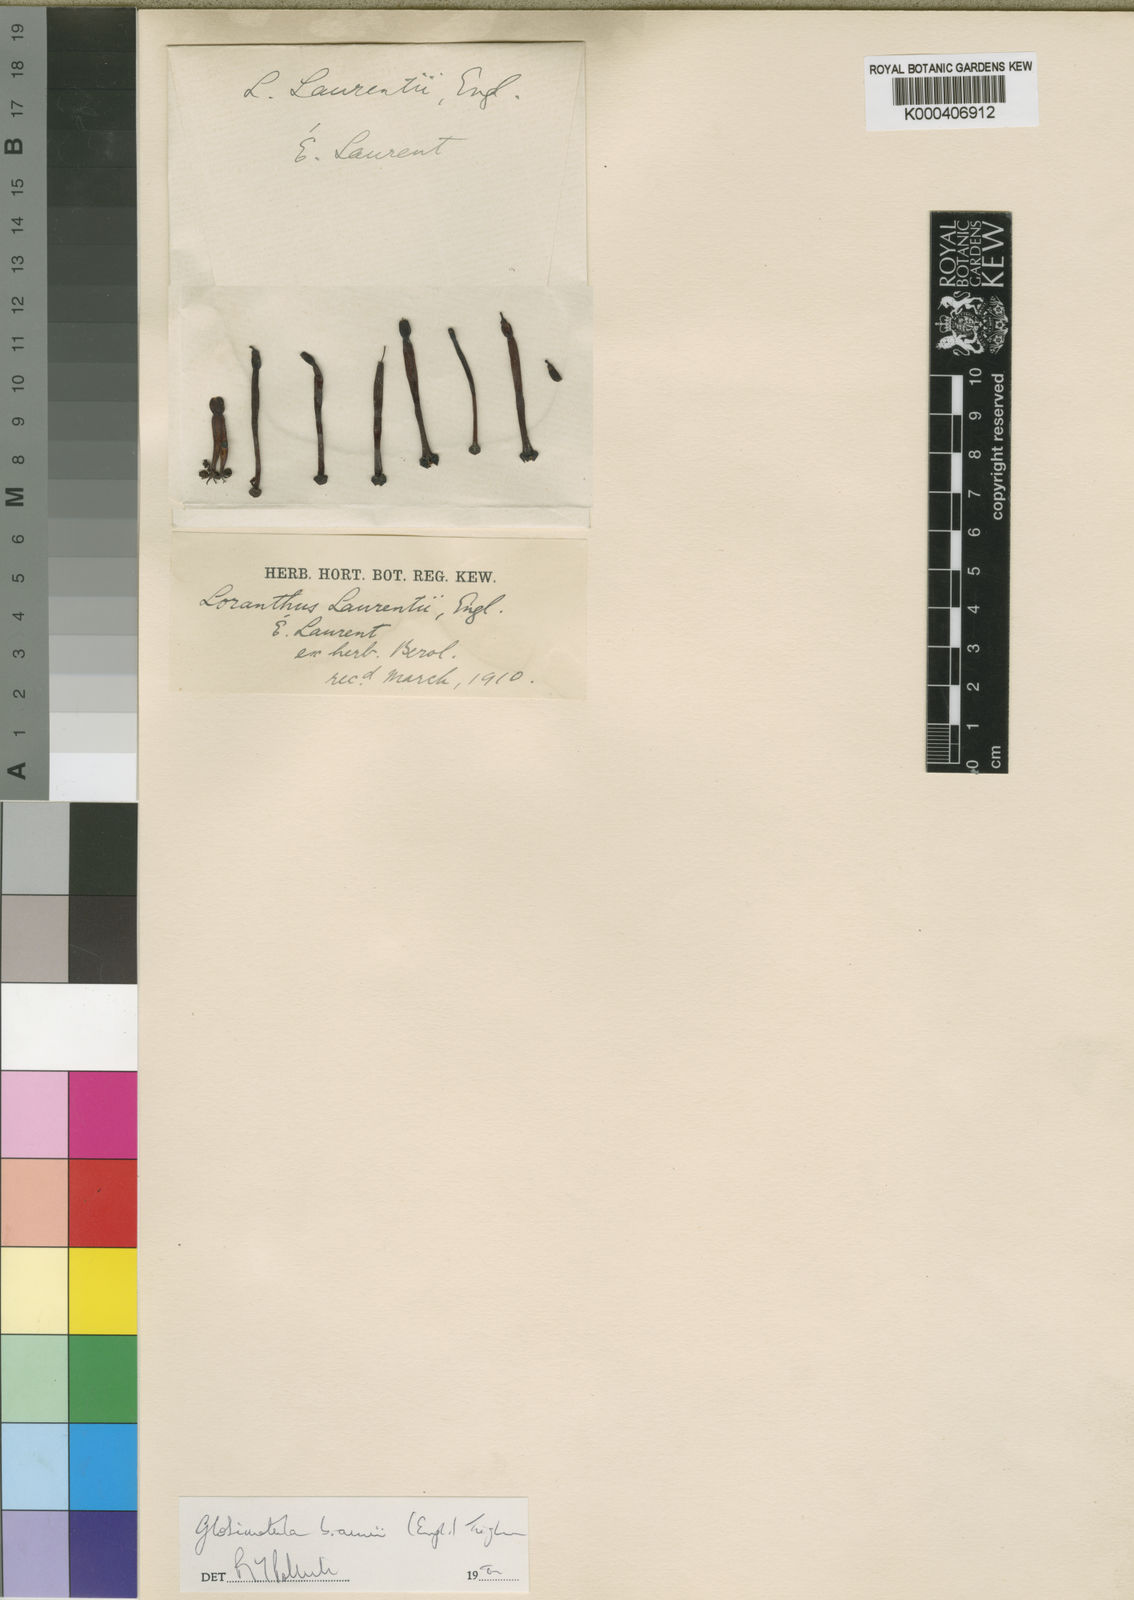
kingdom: Plantae
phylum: Tracheophyta
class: Magnoliopsida
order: Santalales
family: Loranthaceae
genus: Globimetula
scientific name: Globimetula braunii
